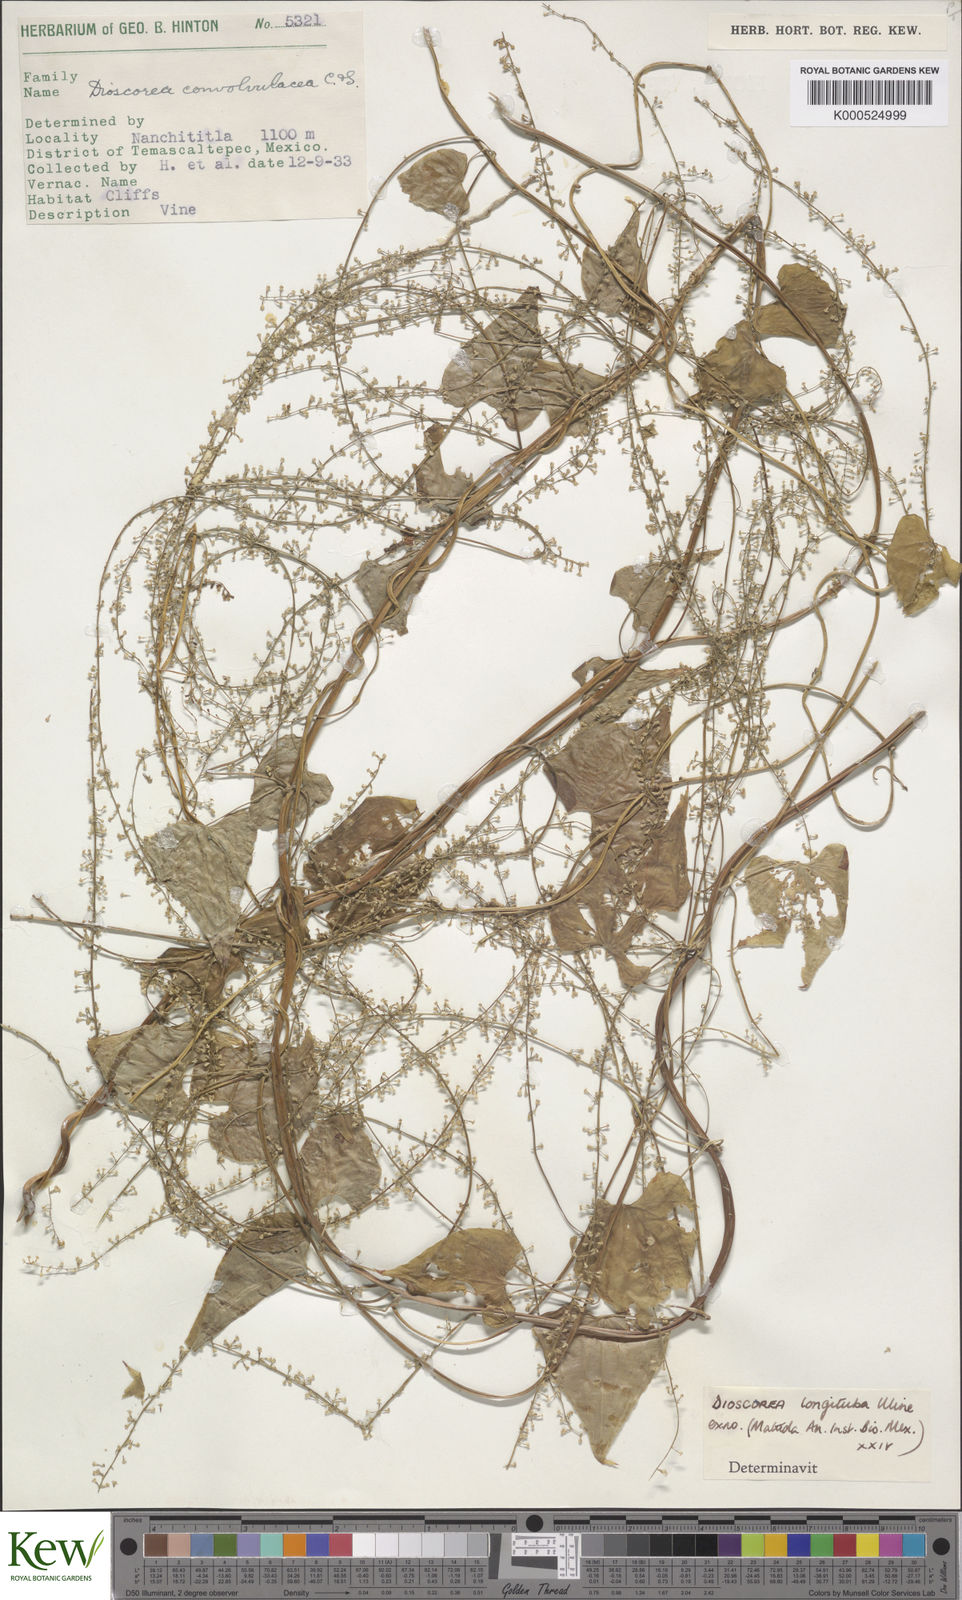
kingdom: Plantae
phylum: Tracheophyta
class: Liliopsida
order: Dioscoreales
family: Dioscoreaceae
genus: Dioscorea
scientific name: Dioscorea longituba
